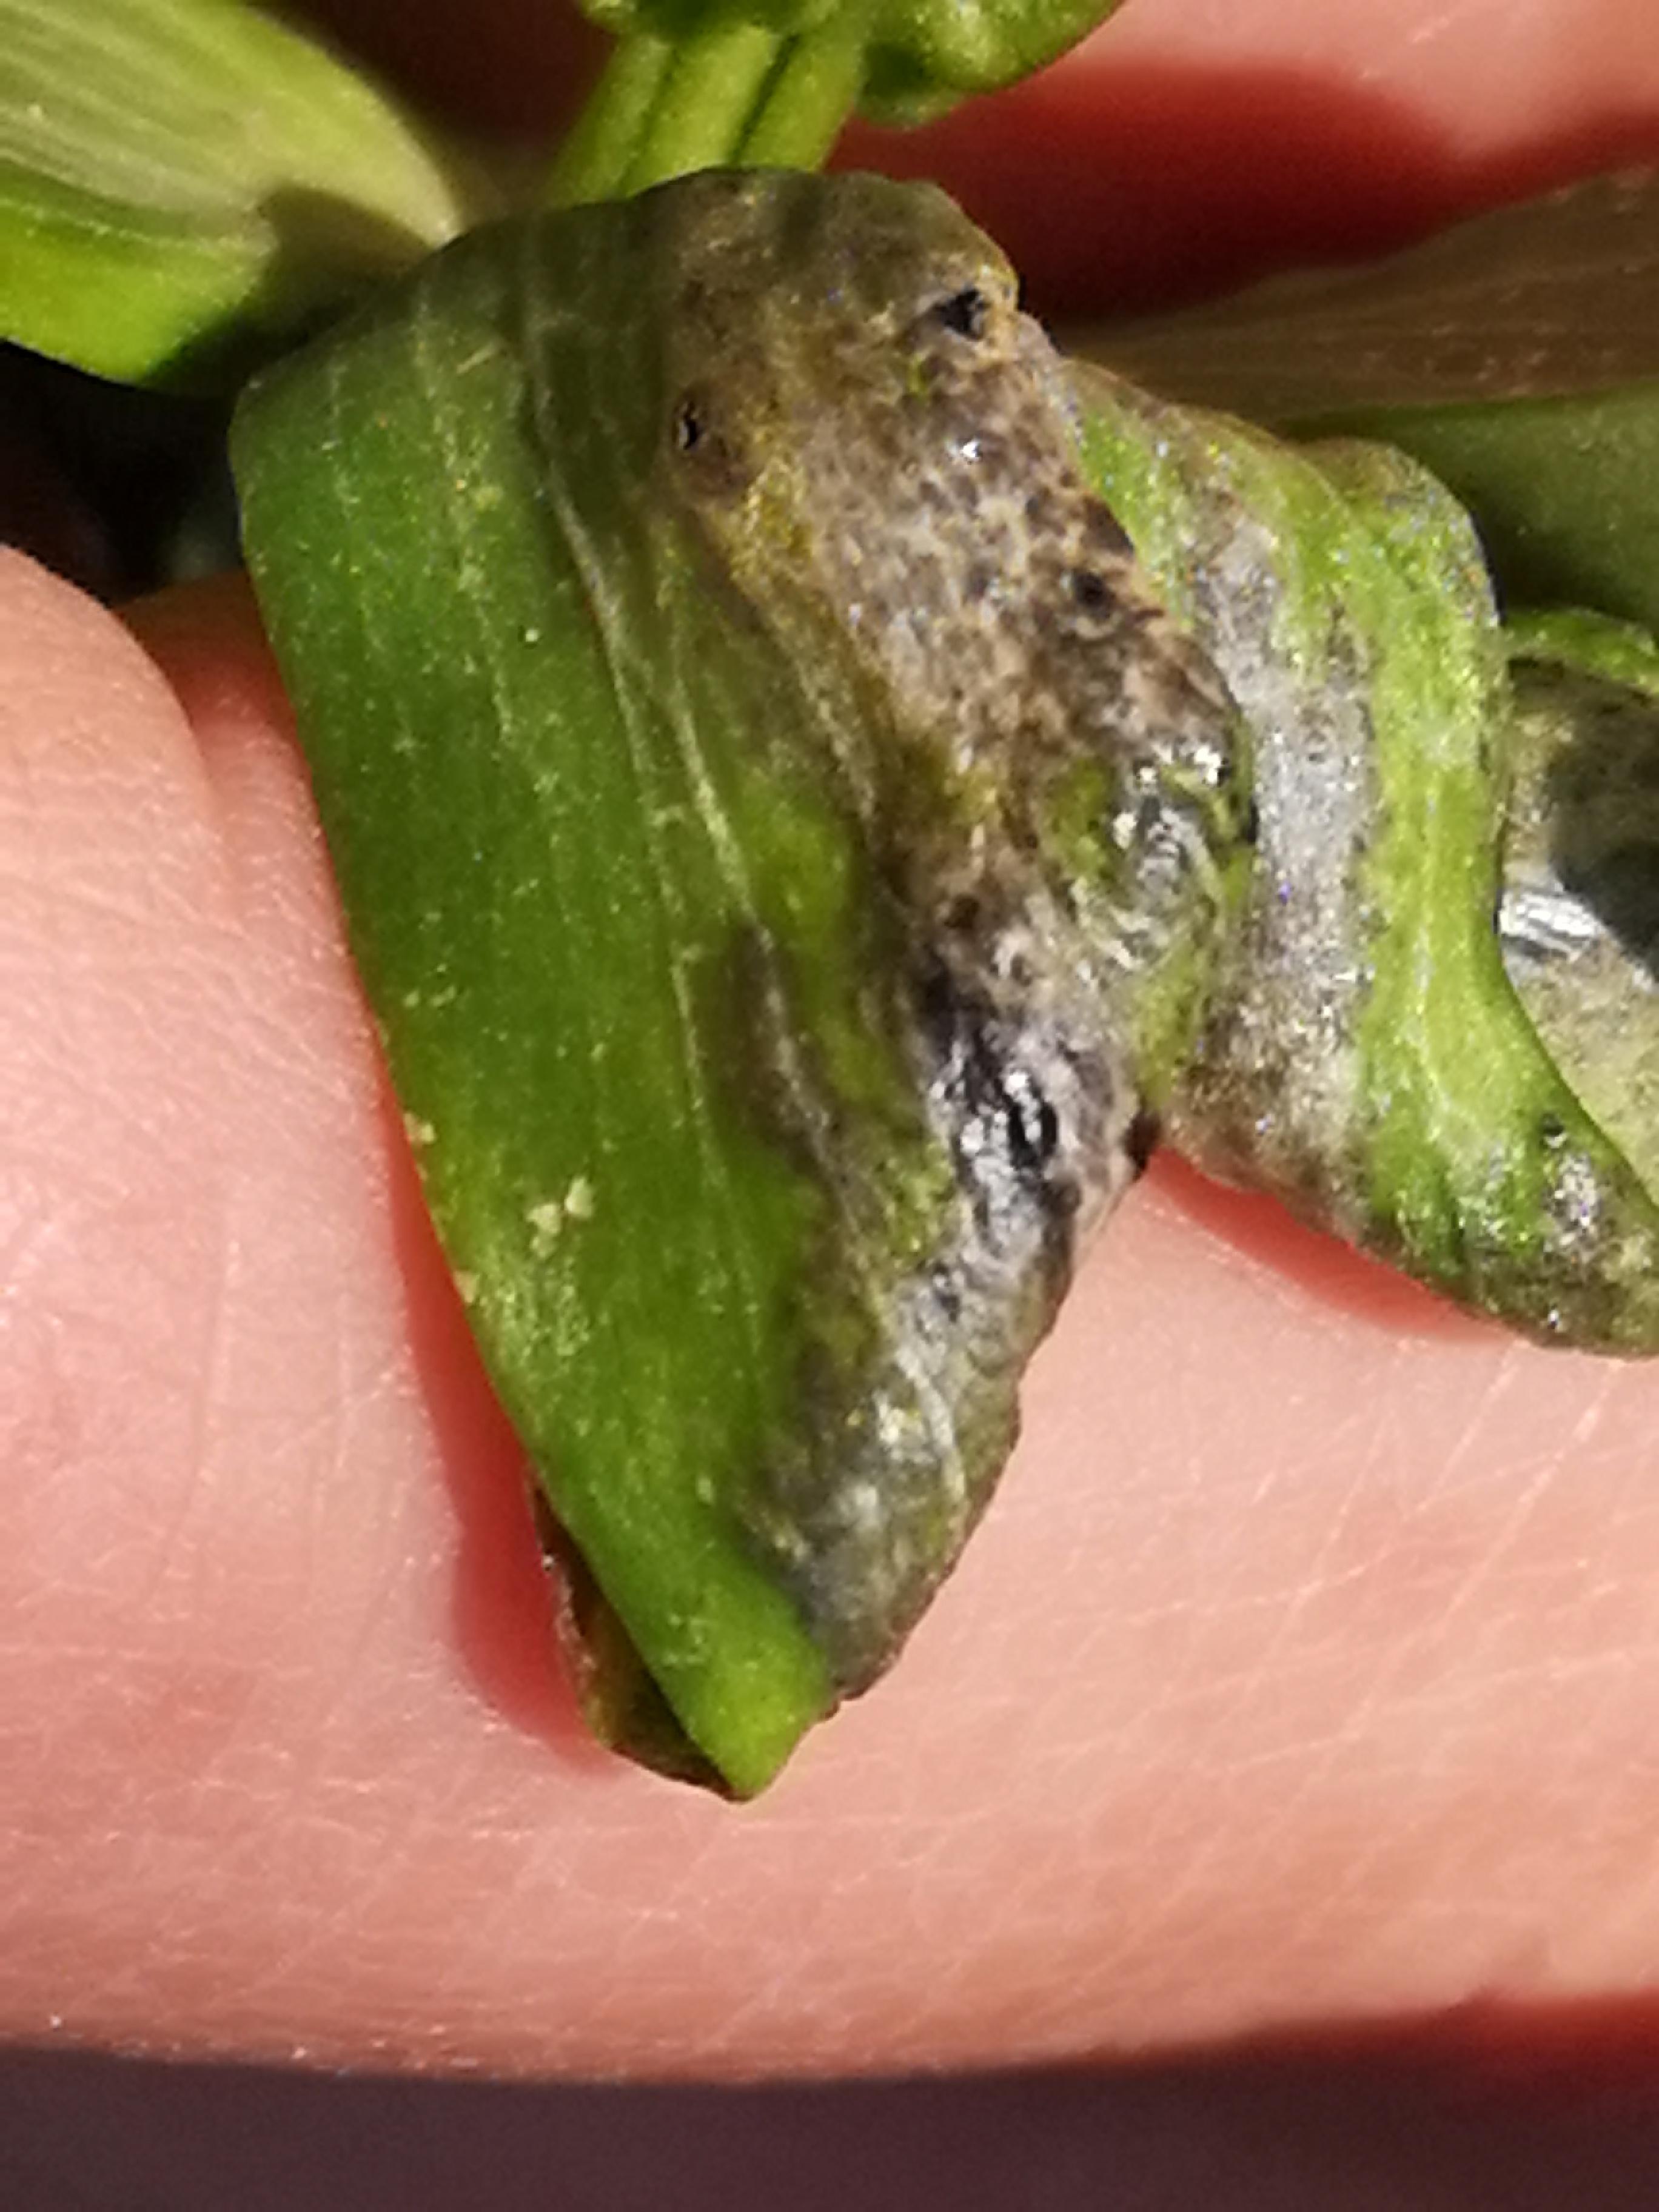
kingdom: Fungi
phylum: Basidiomycota
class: Ustilaginomycetes
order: Urocystidales
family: Urocystidaceae
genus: Urocystis
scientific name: Urocystis eranthidis
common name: erantis-brand
